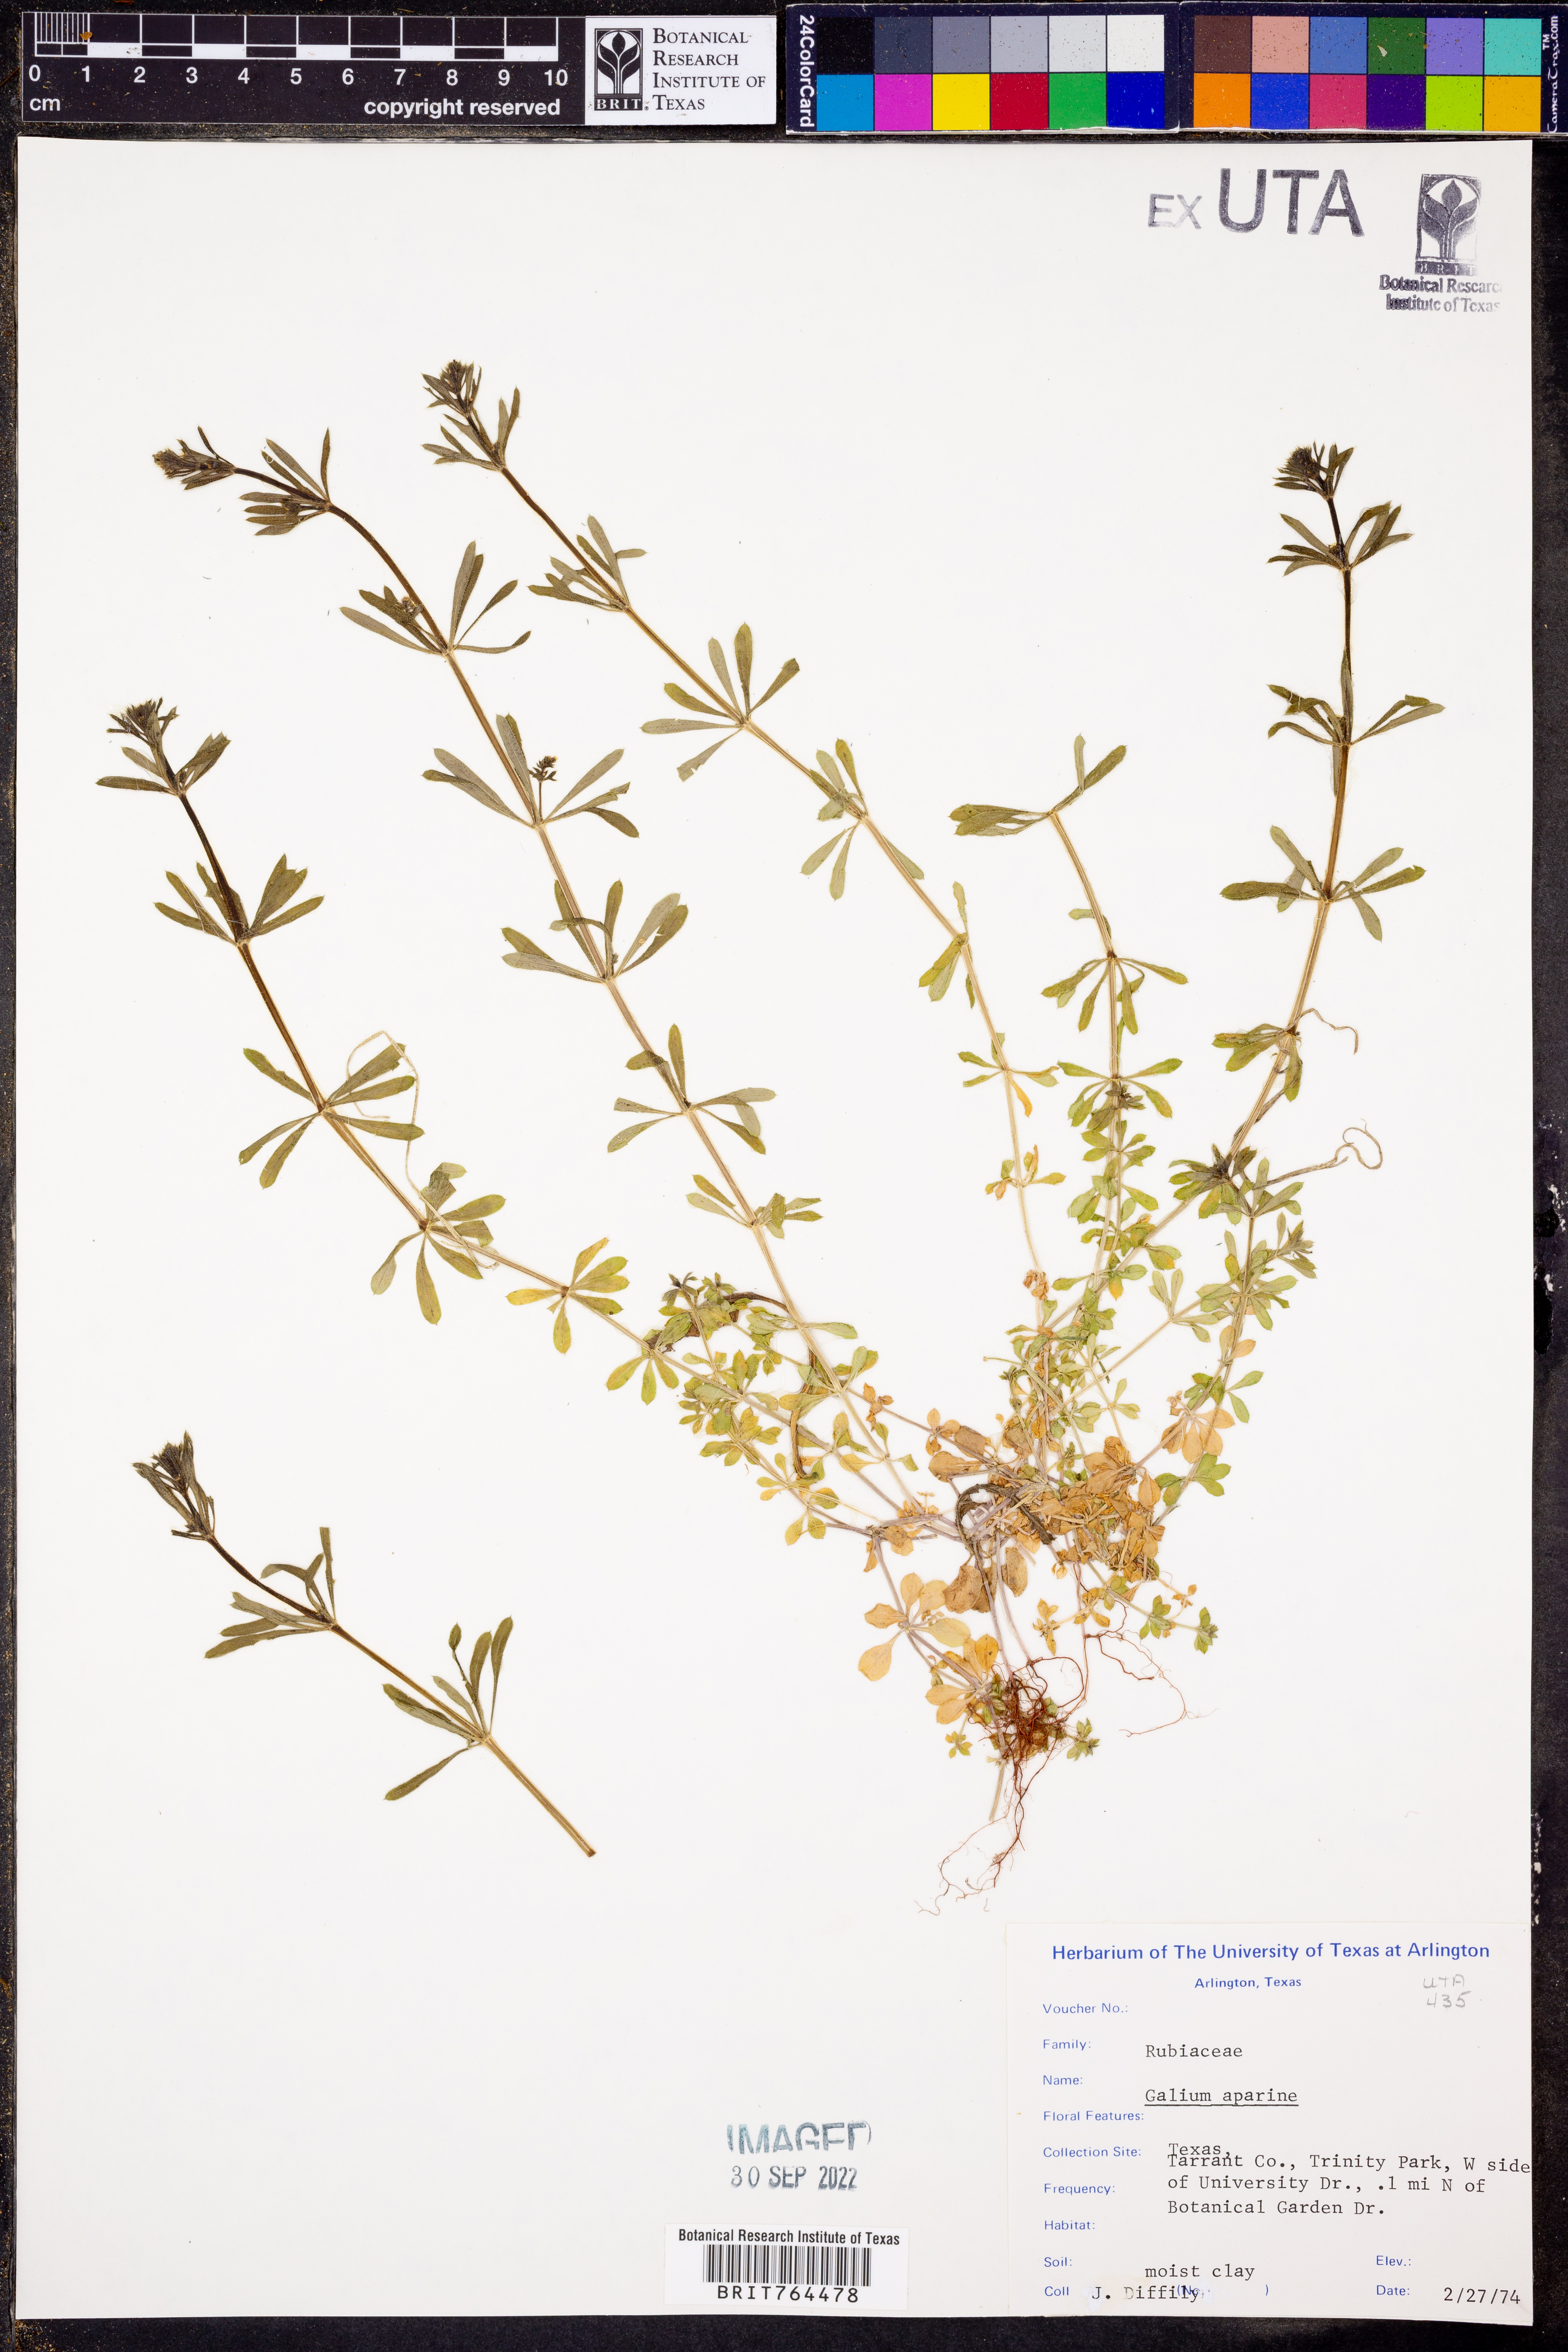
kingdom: Plantae
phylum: Tracheophyta
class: Magnoliopsida
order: Gentianales
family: Rubiaceae
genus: Galium
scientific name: Galium aparine
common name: Cleavers
